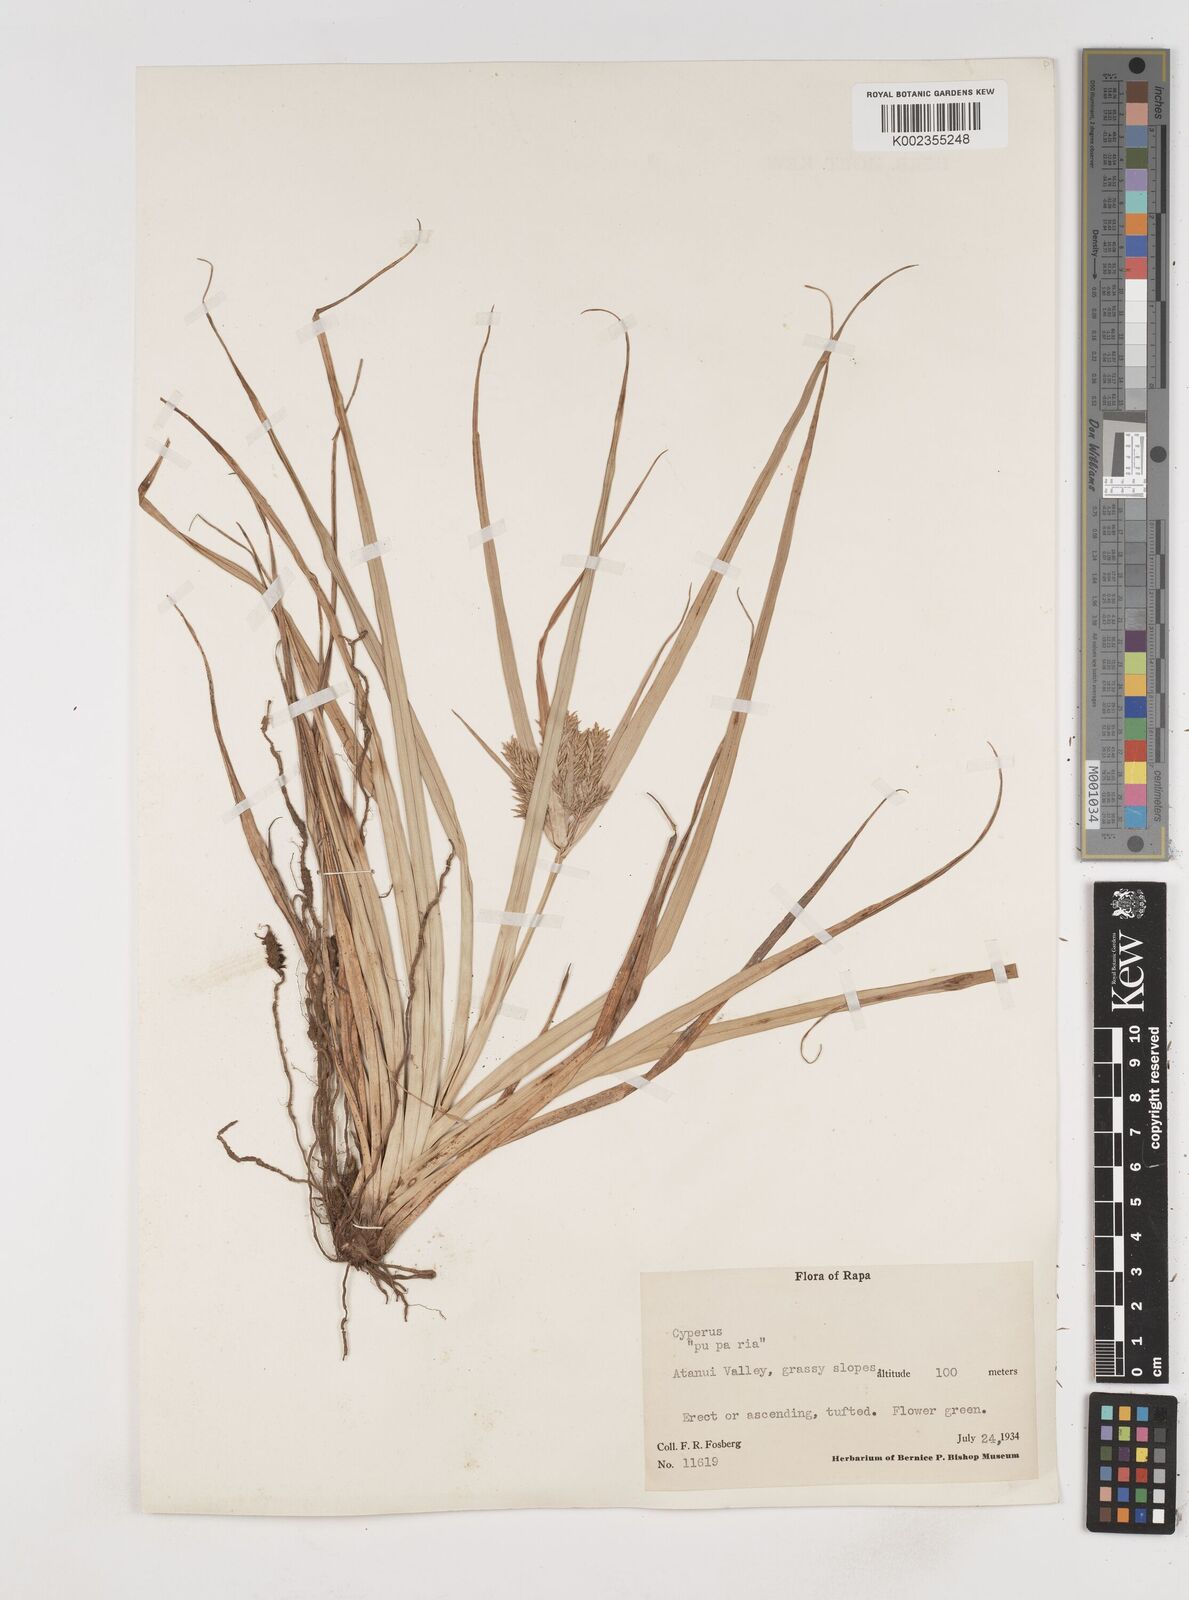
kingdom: Plantae
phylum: Tracheophyta
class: Liliopsida
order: Poales
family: Cyperaceae
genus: Cyperus
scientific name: Cyperus
